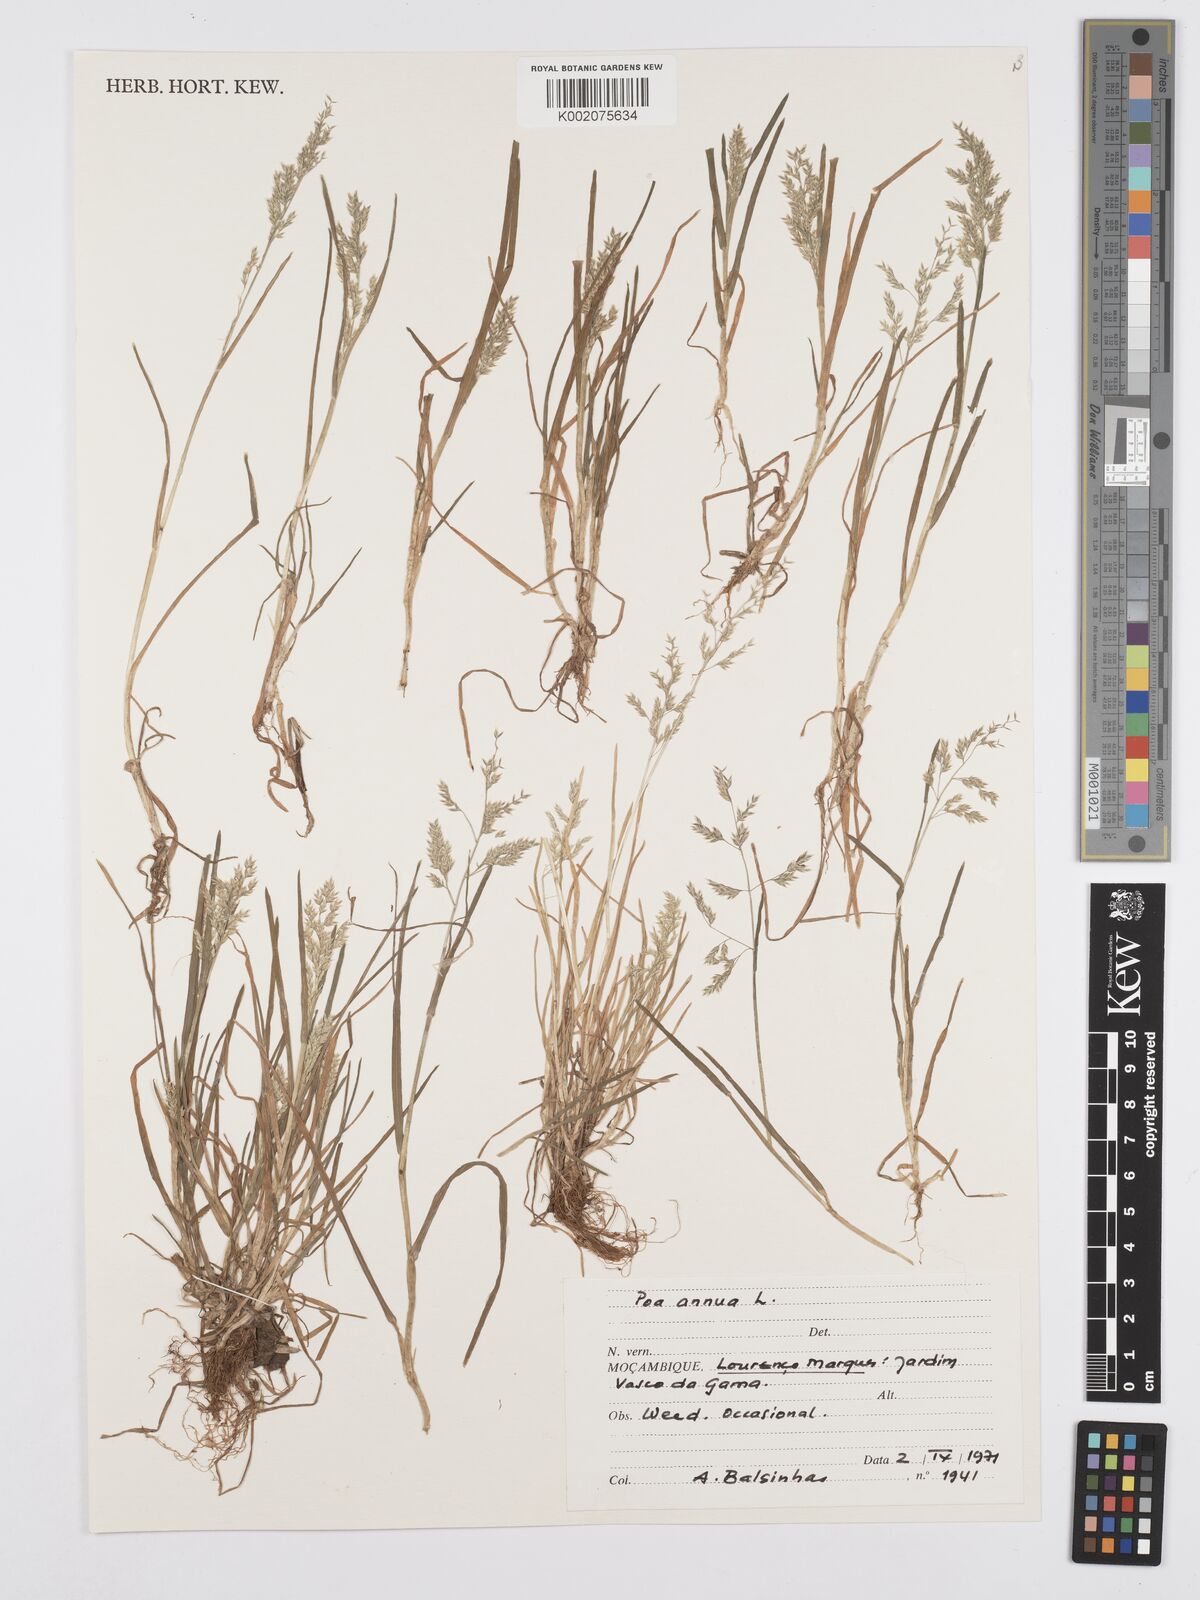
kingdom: Plantae
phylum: Tracheophyta
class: Liliopsida
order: Poales
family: Poaceae
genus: Poa
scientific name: Poa annua
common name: Annual bluegrass
